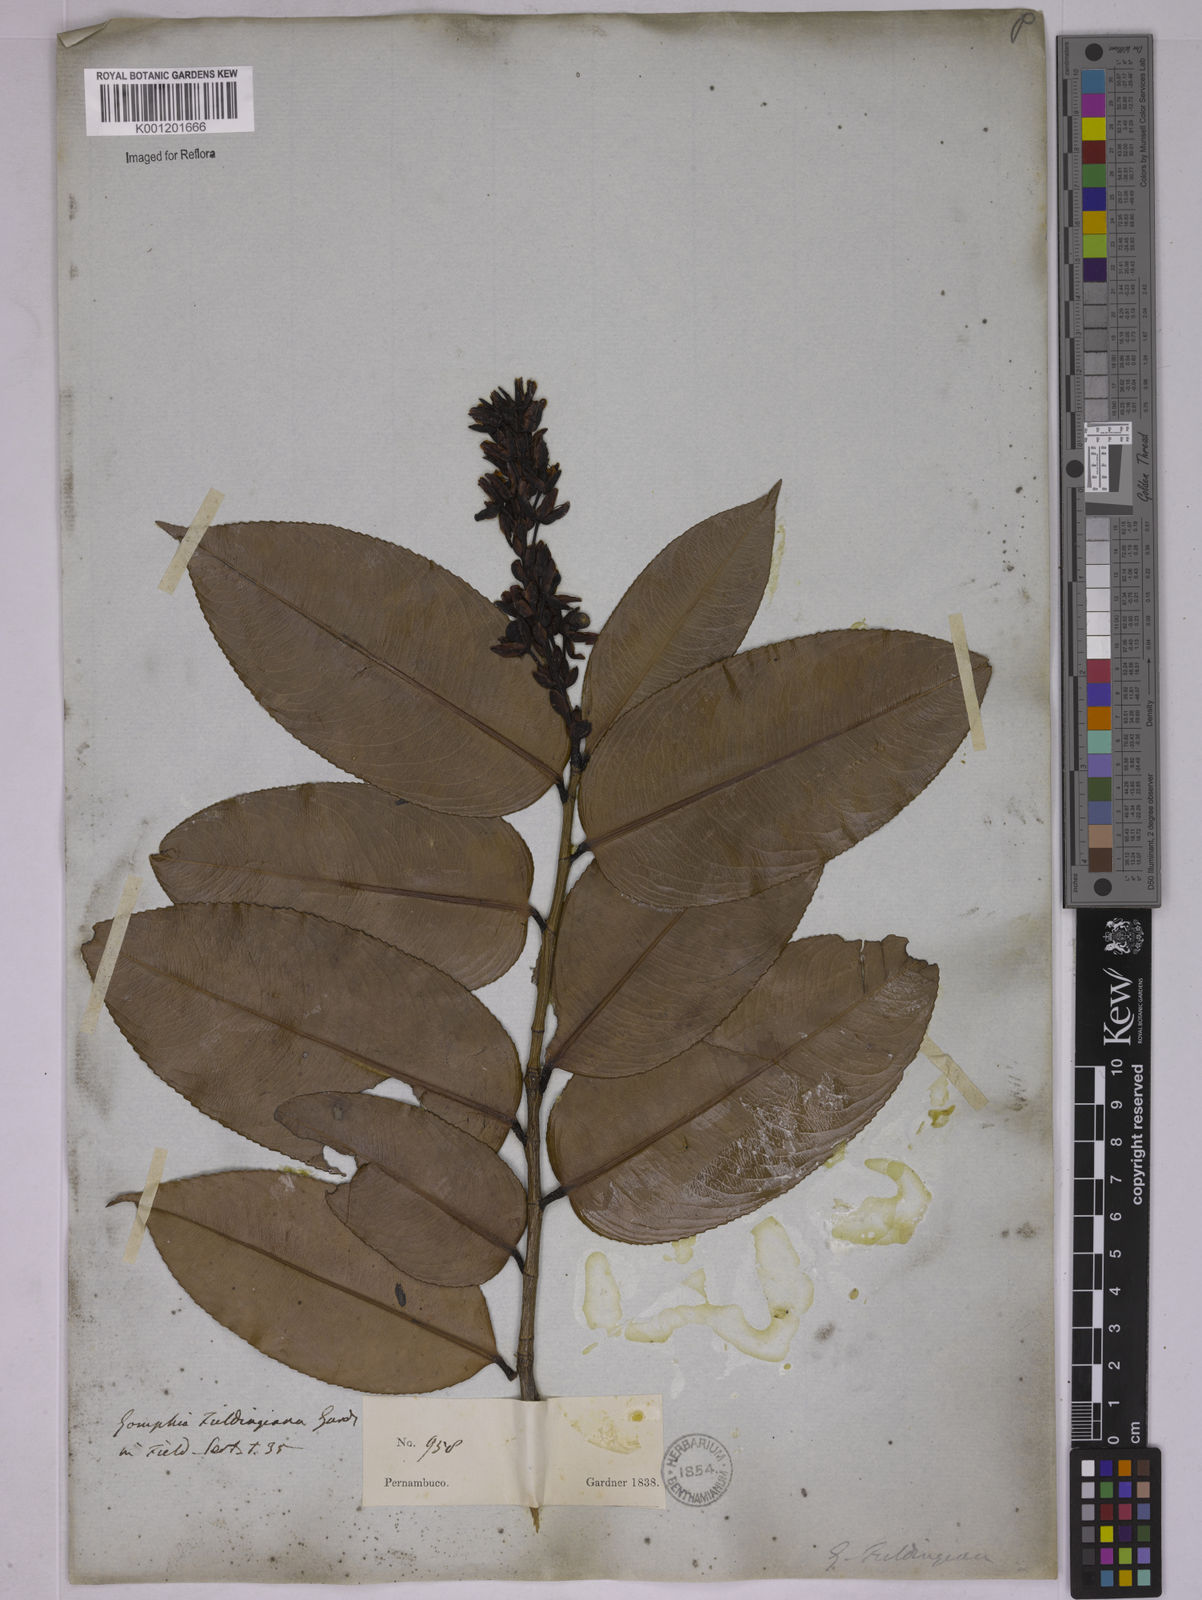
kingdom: Plantae
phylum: Tracheophyta
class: Magnoliopsida
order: Malpighiales
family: Ochnaceae
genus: Ouratea
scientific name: Ouratea fieldingiana
